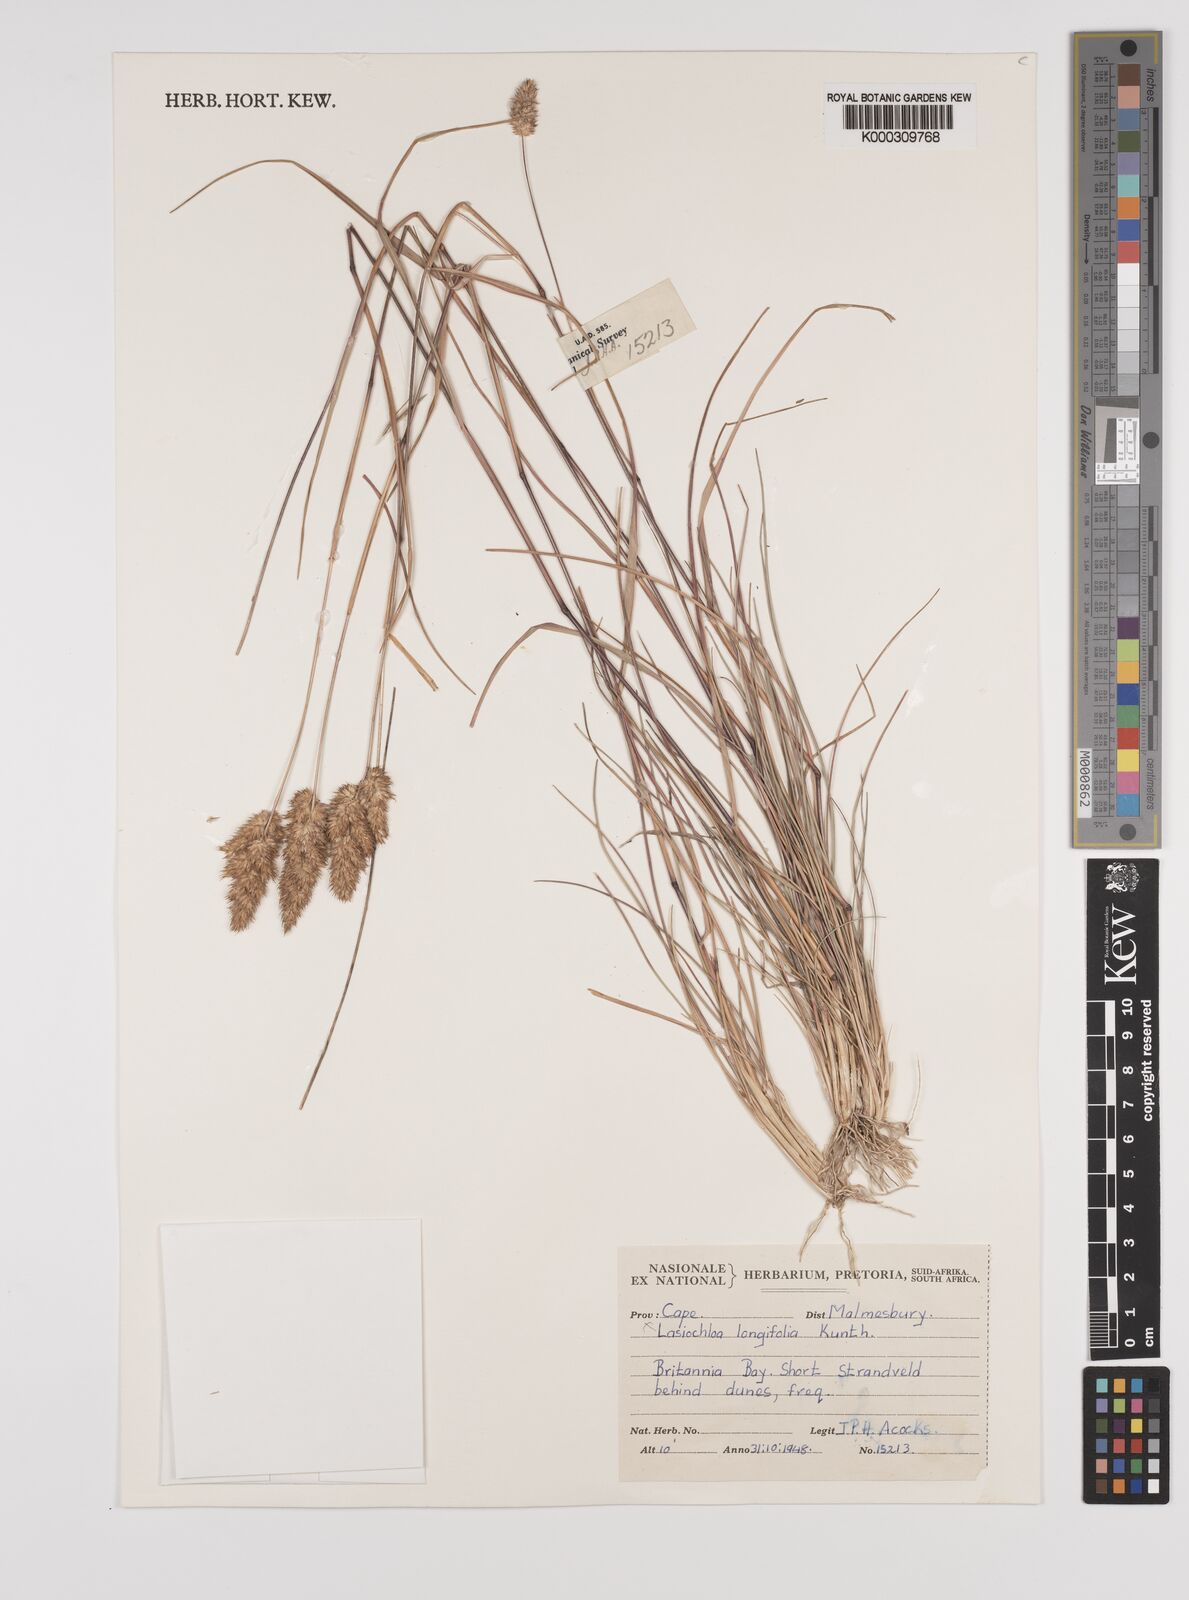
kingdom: Plantae
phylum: Tracheophyta
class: Liliopsida
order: Poales
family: Poaceae
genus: Tribolium
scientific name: Tribolium hispidum
